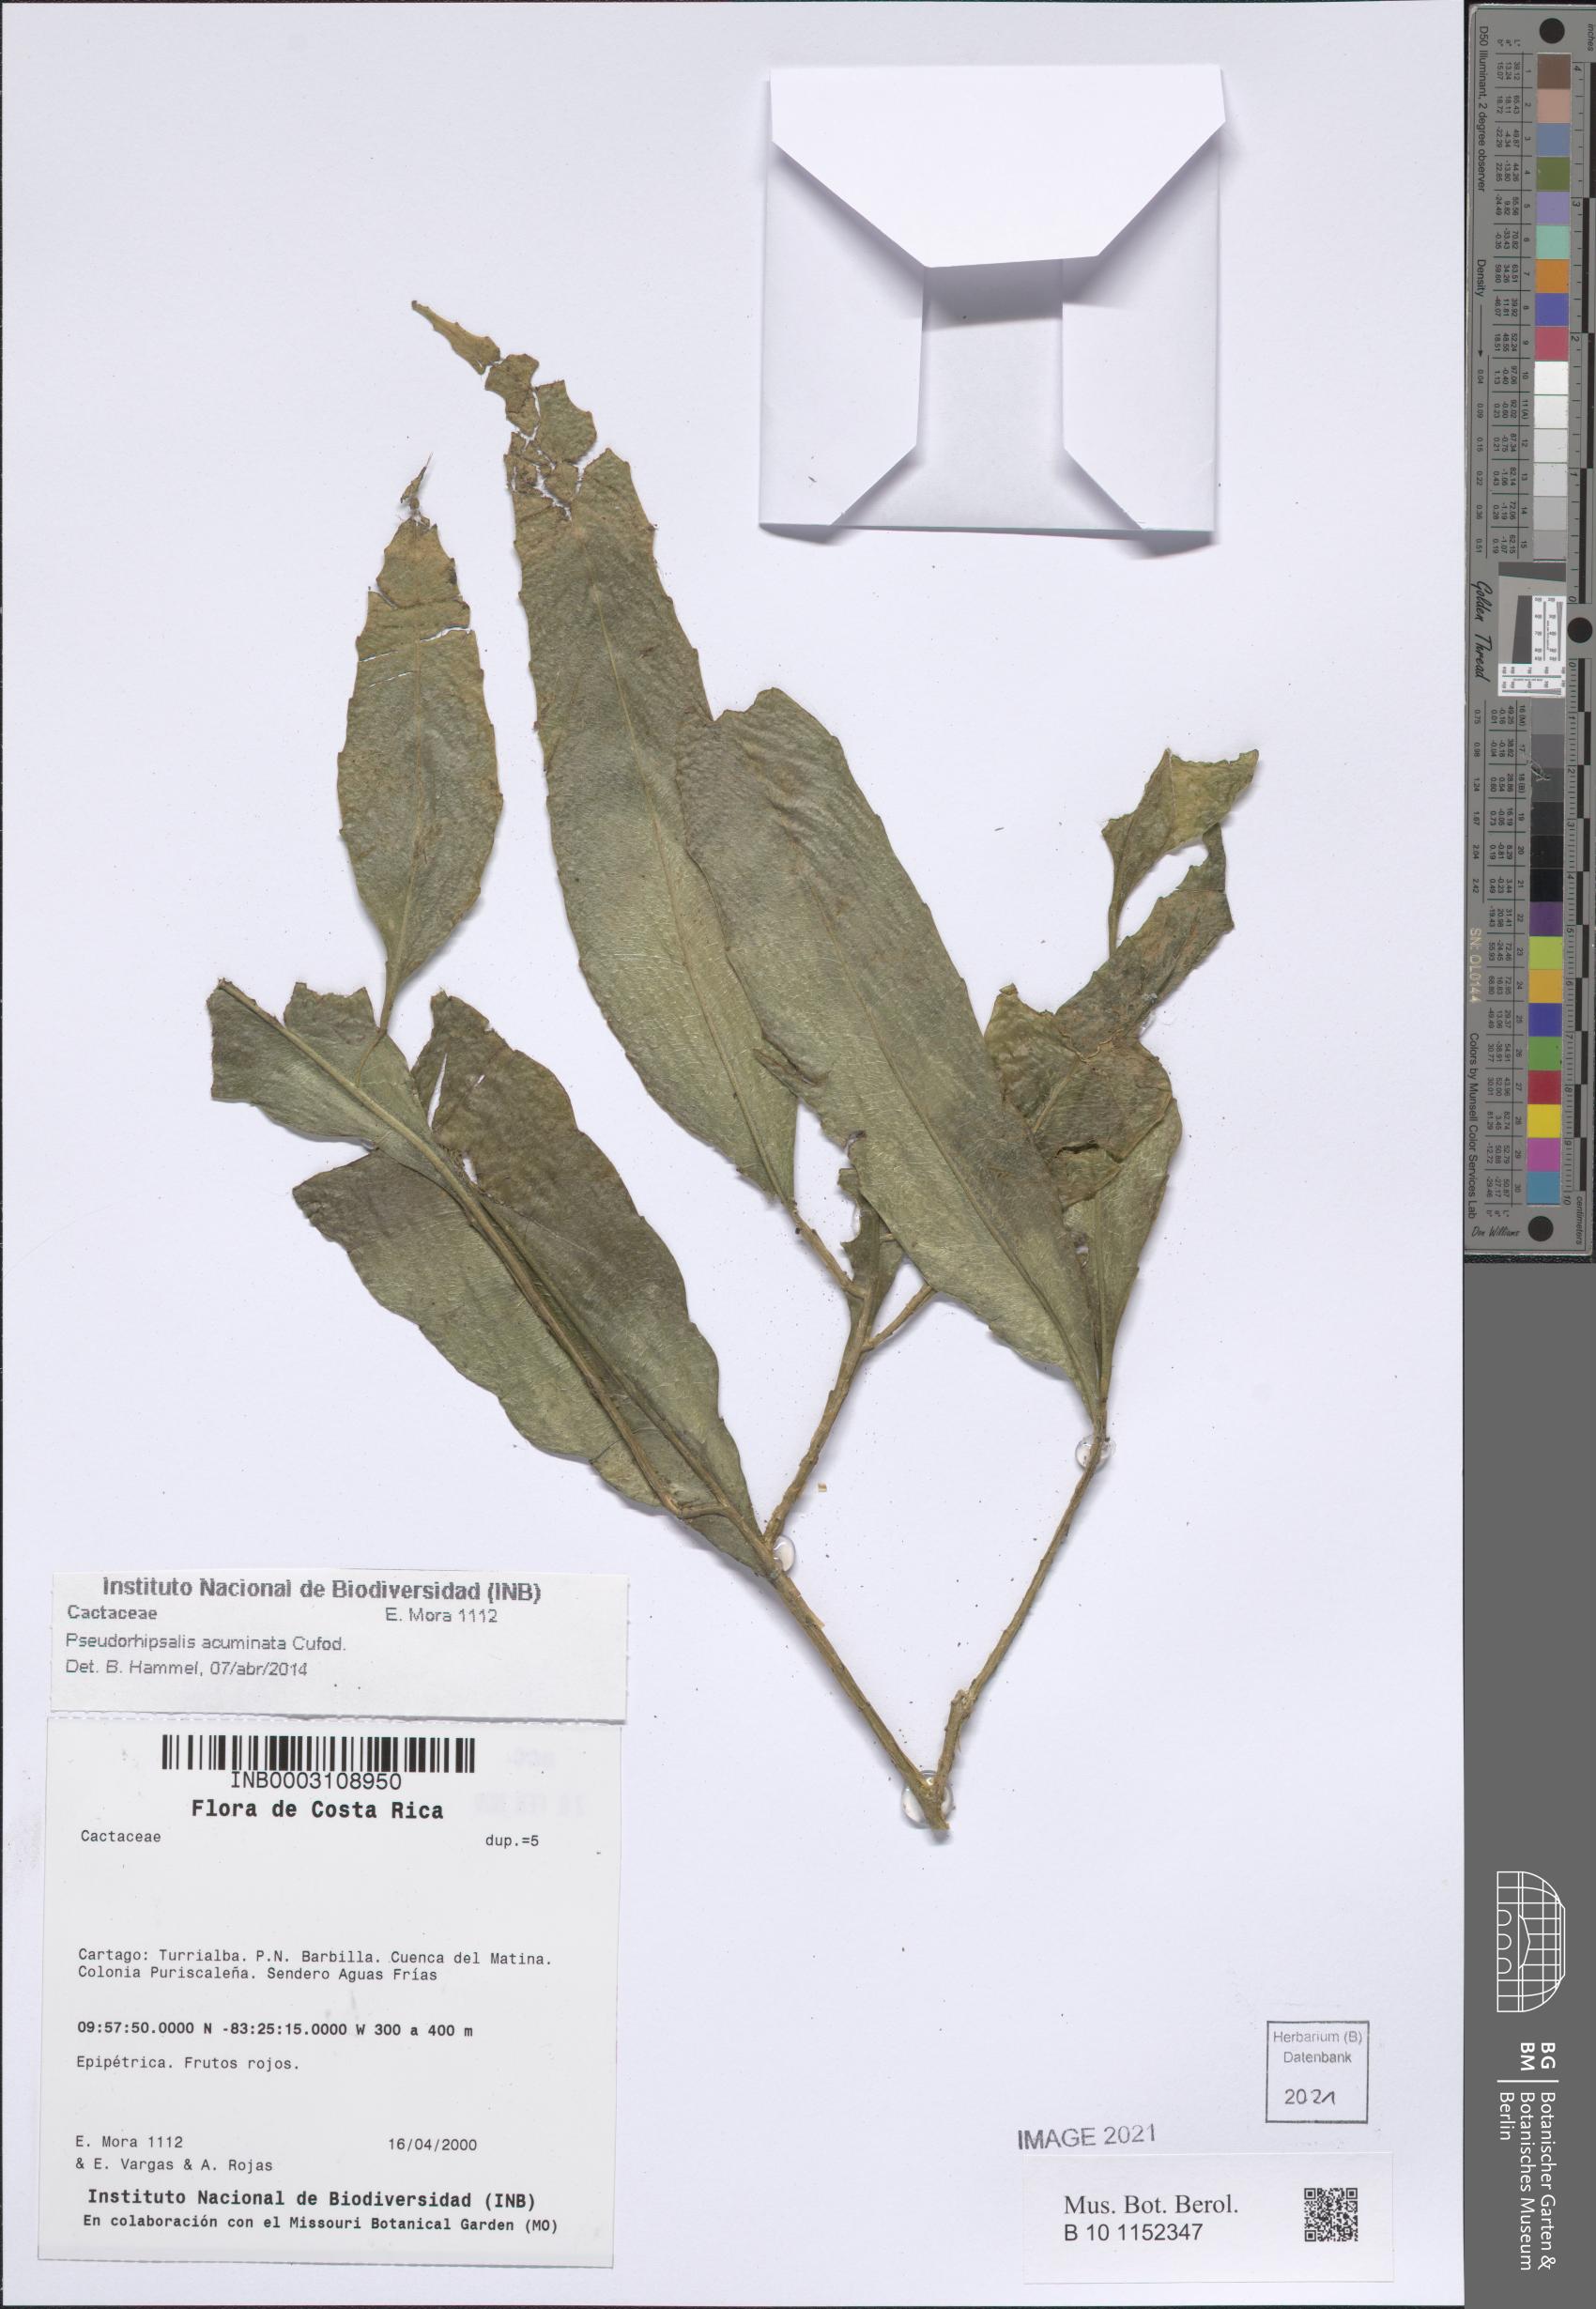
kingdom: Plantae
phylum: Tracheophyta
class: Magnoliopsida
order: Caryophyllales
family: Cactaceae
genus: Pseudorhipsalis
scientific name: Pseudorhipsalis acuminata
